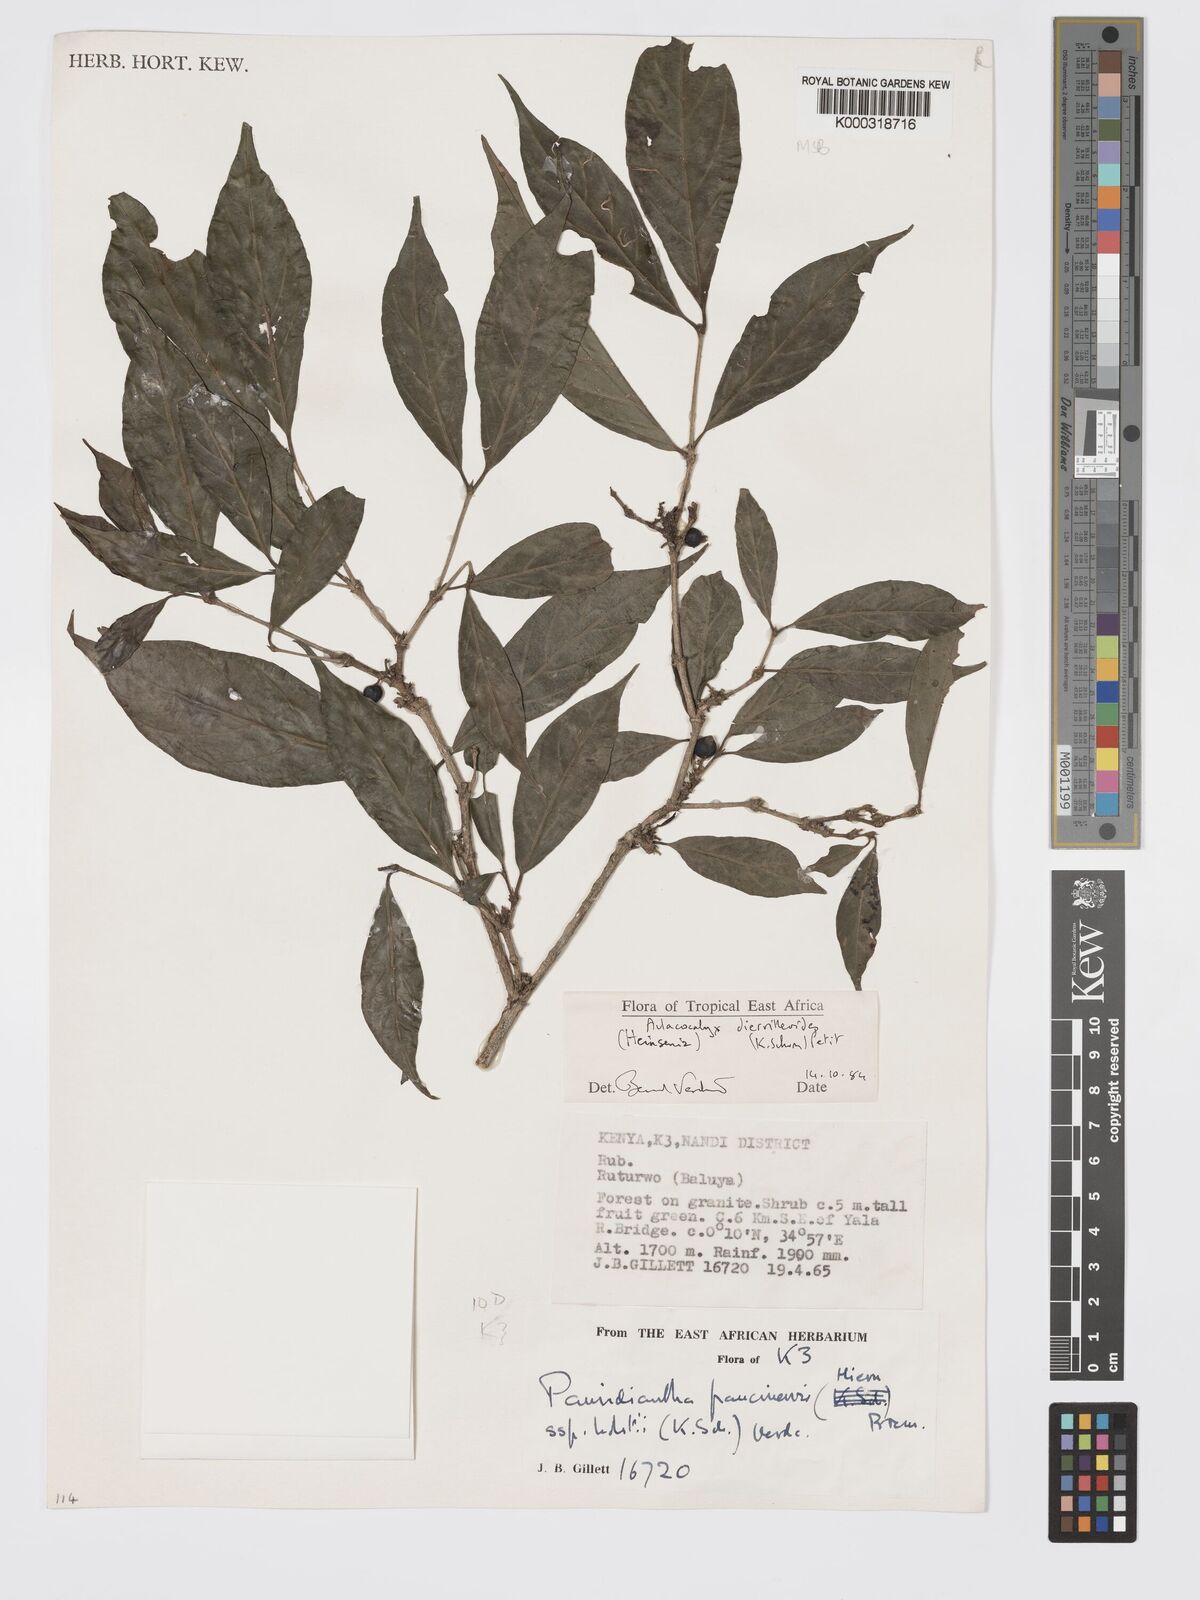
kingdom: Plantae
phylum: Tracheophyta
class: Magnoliopsida
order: Gentianales
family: Rubiaceae
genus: Heinsenia
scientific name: Heinsenia diervilleoides
